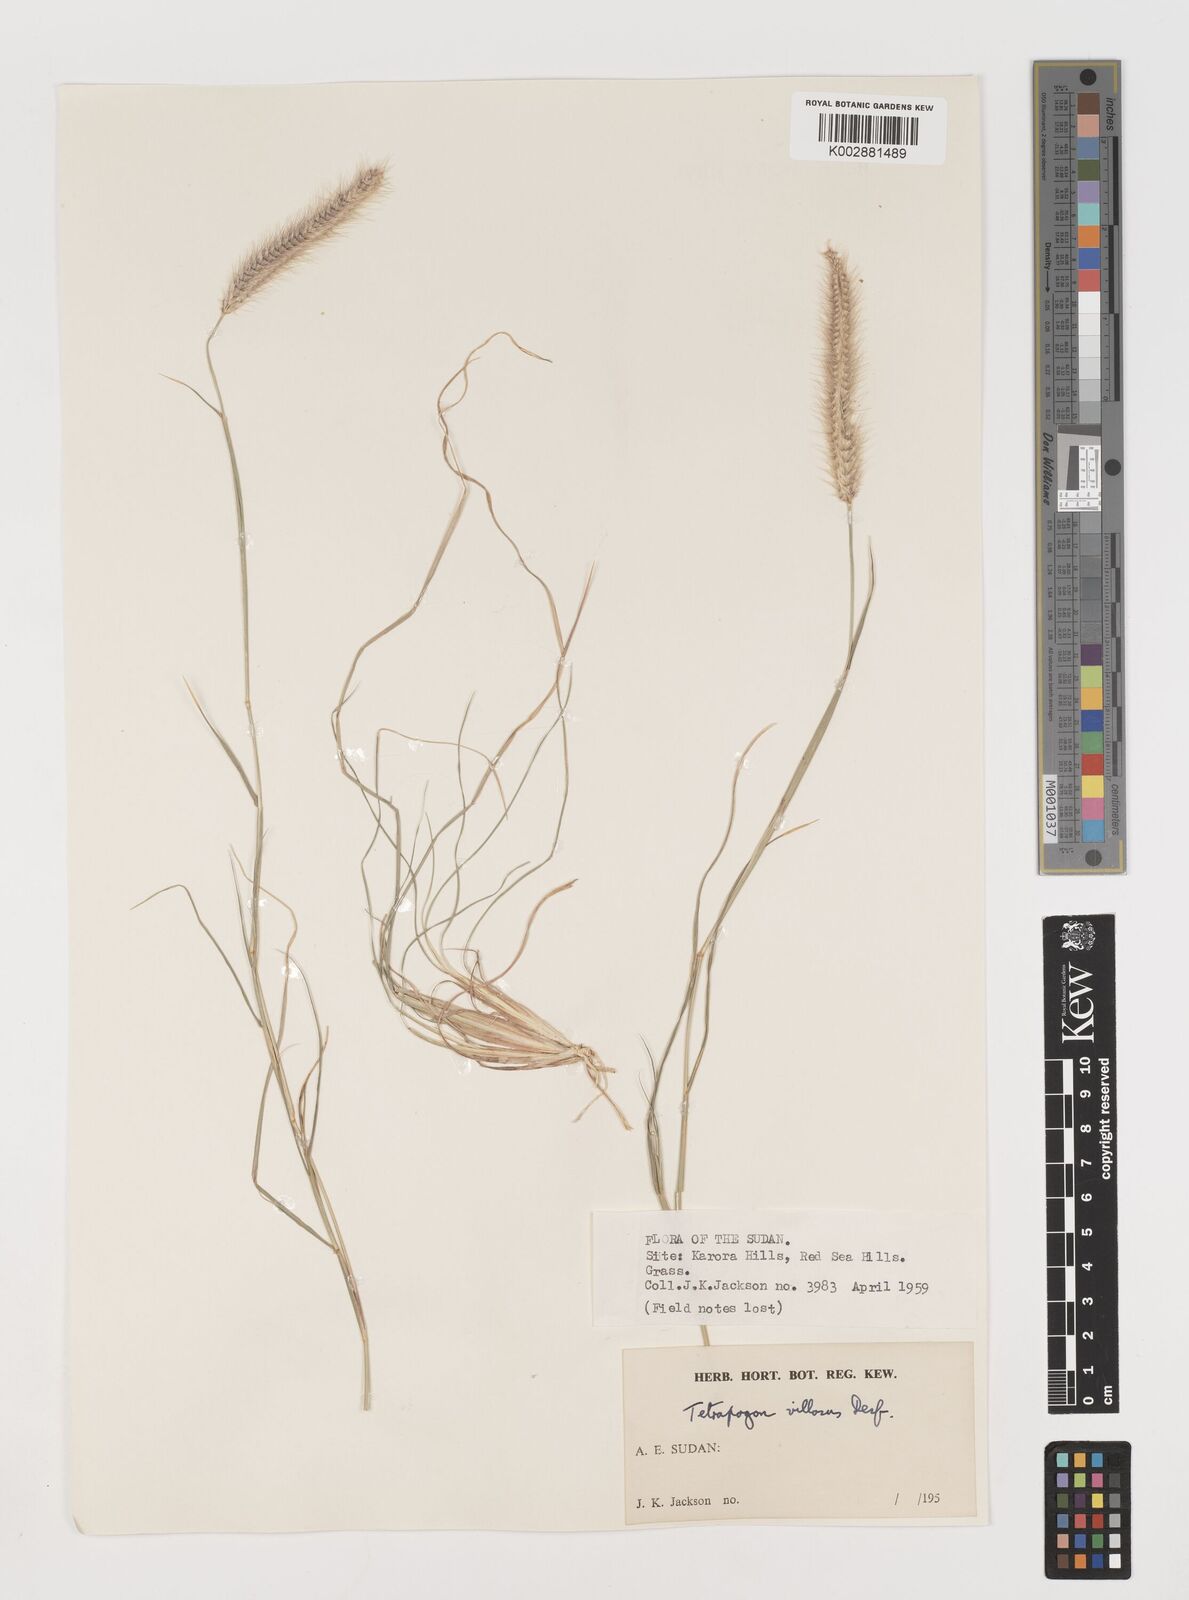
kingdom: Plantae
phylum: Tracheophyta
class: Liliopsida
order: Poales
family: Poaceae
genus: Tetrapogon
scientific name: Tetrapogon villosus
